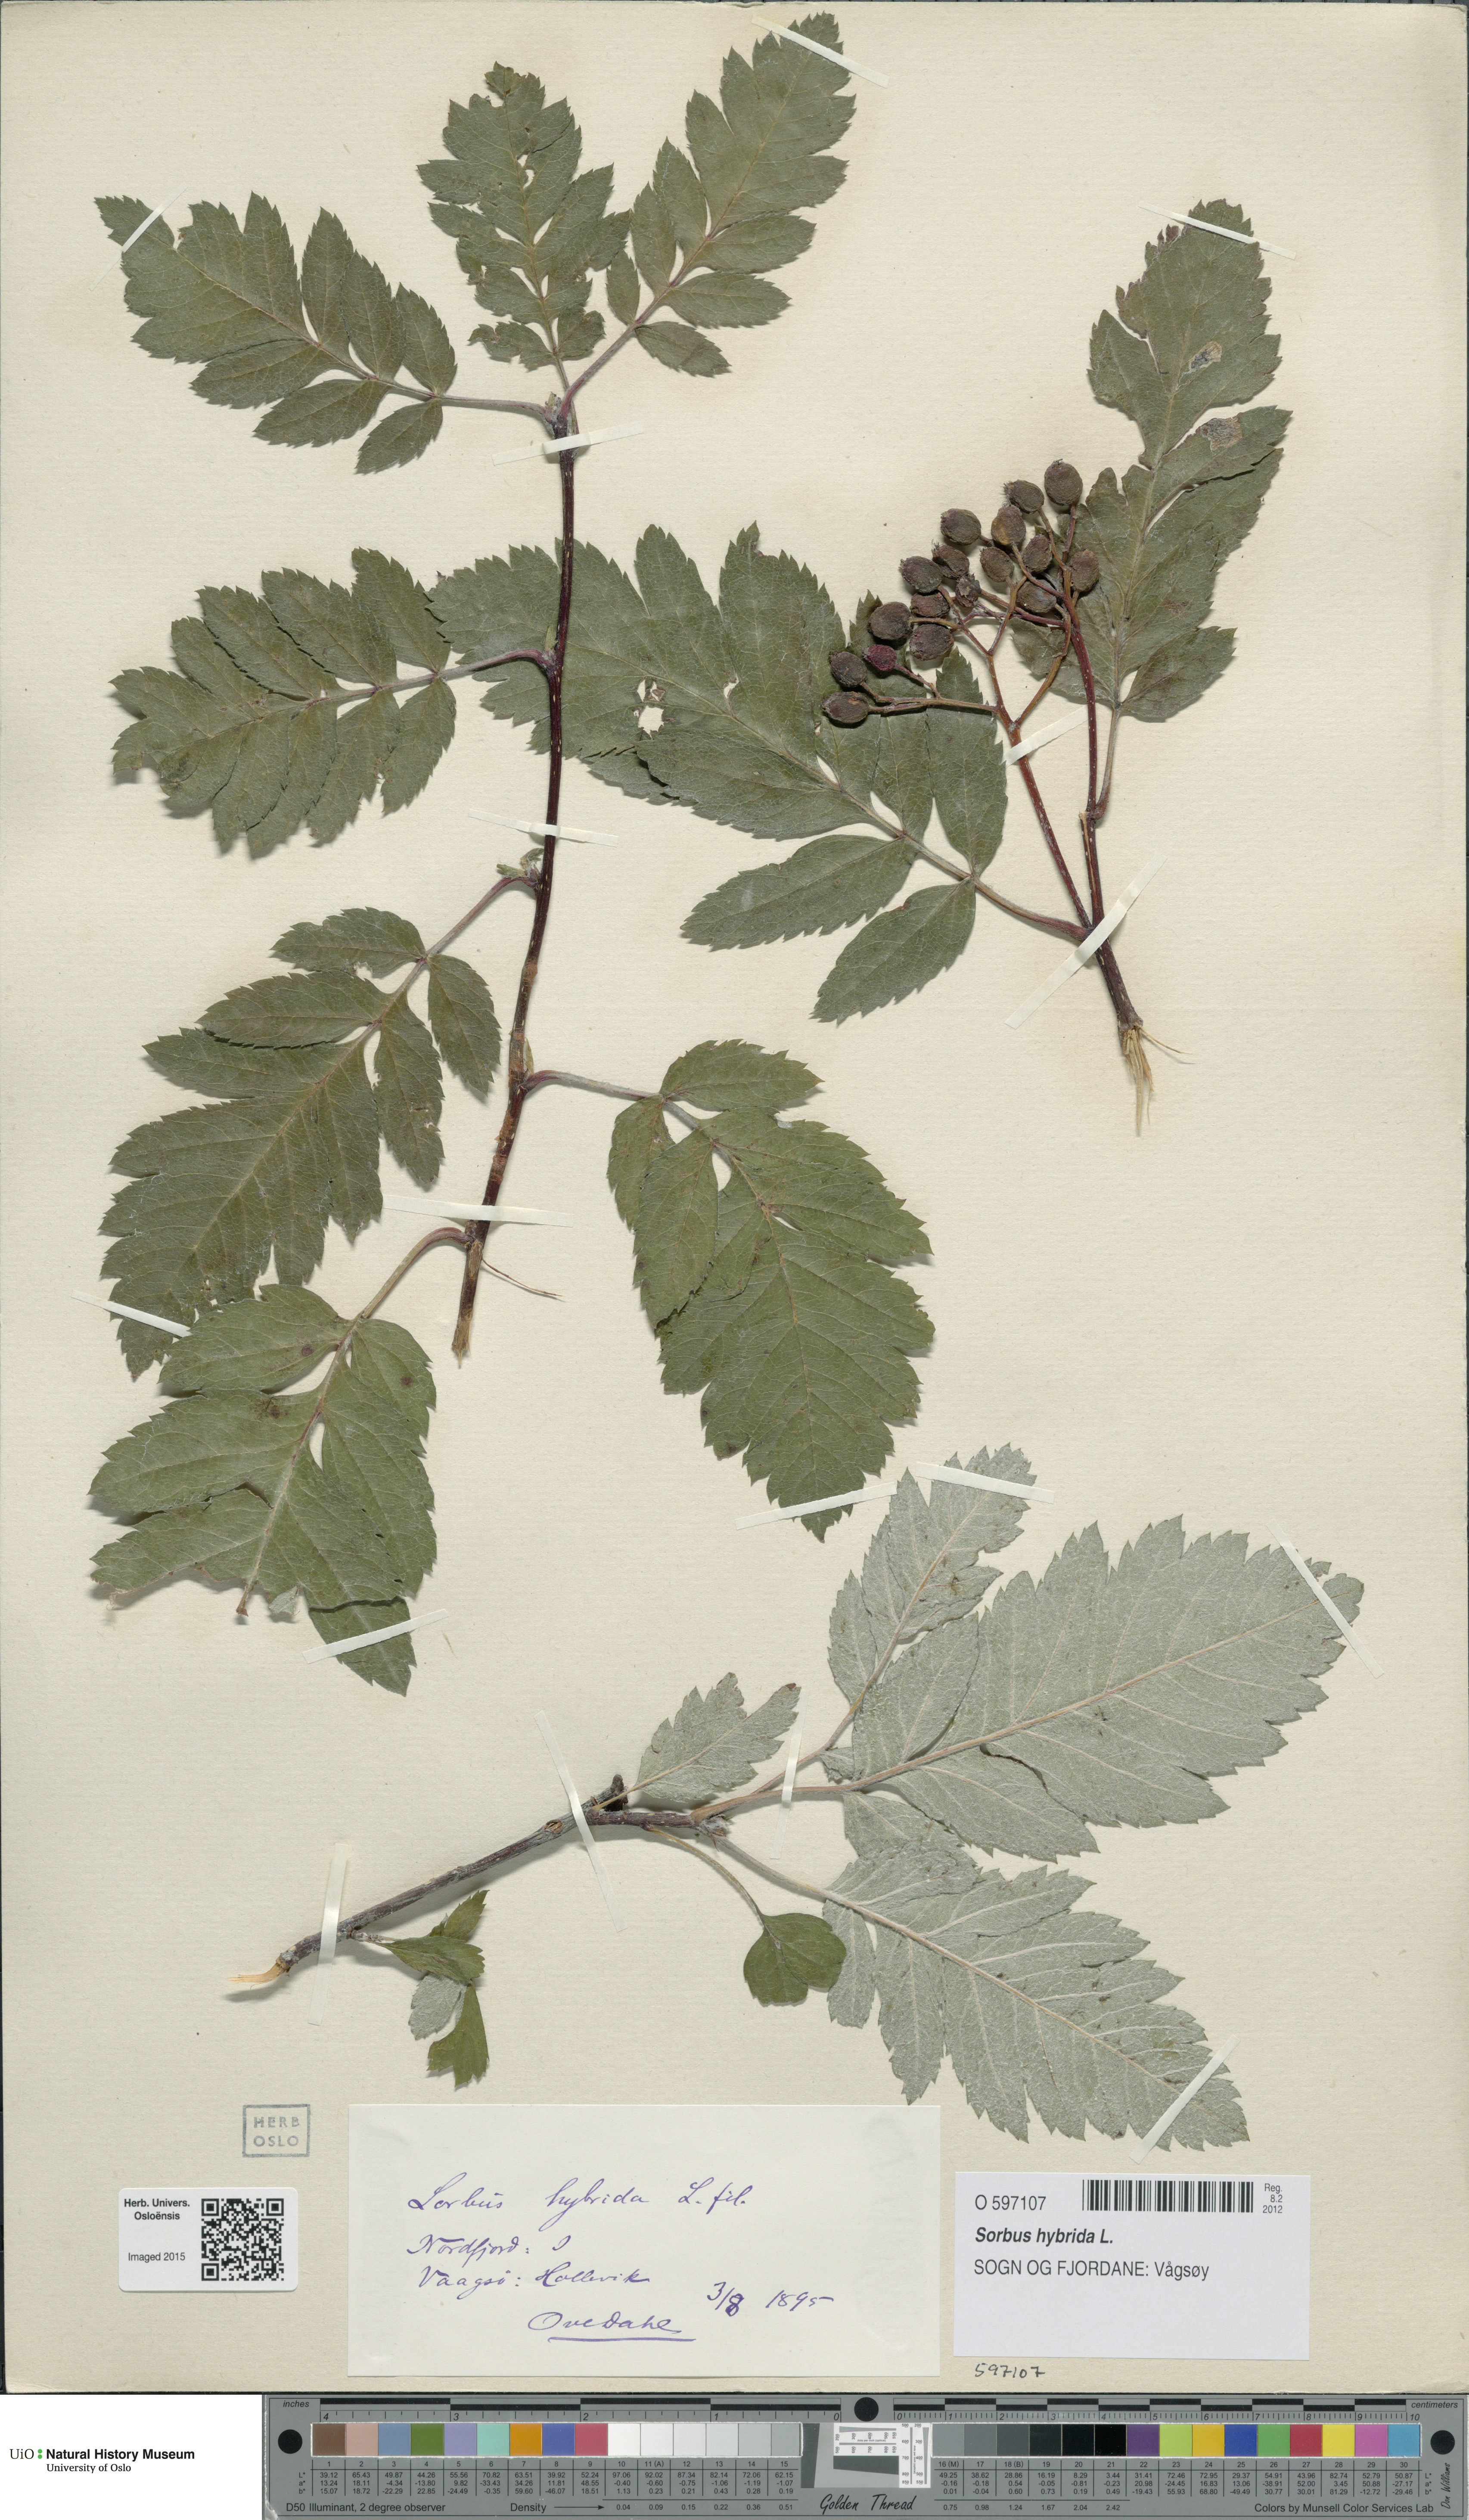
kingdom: Plantae
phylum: Tracheophyta
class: Magnoliopsida
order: Rosales
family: Rosaceae
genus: Hedlundia
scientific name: Hedlundia hybrida
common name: Swedish service-tree
